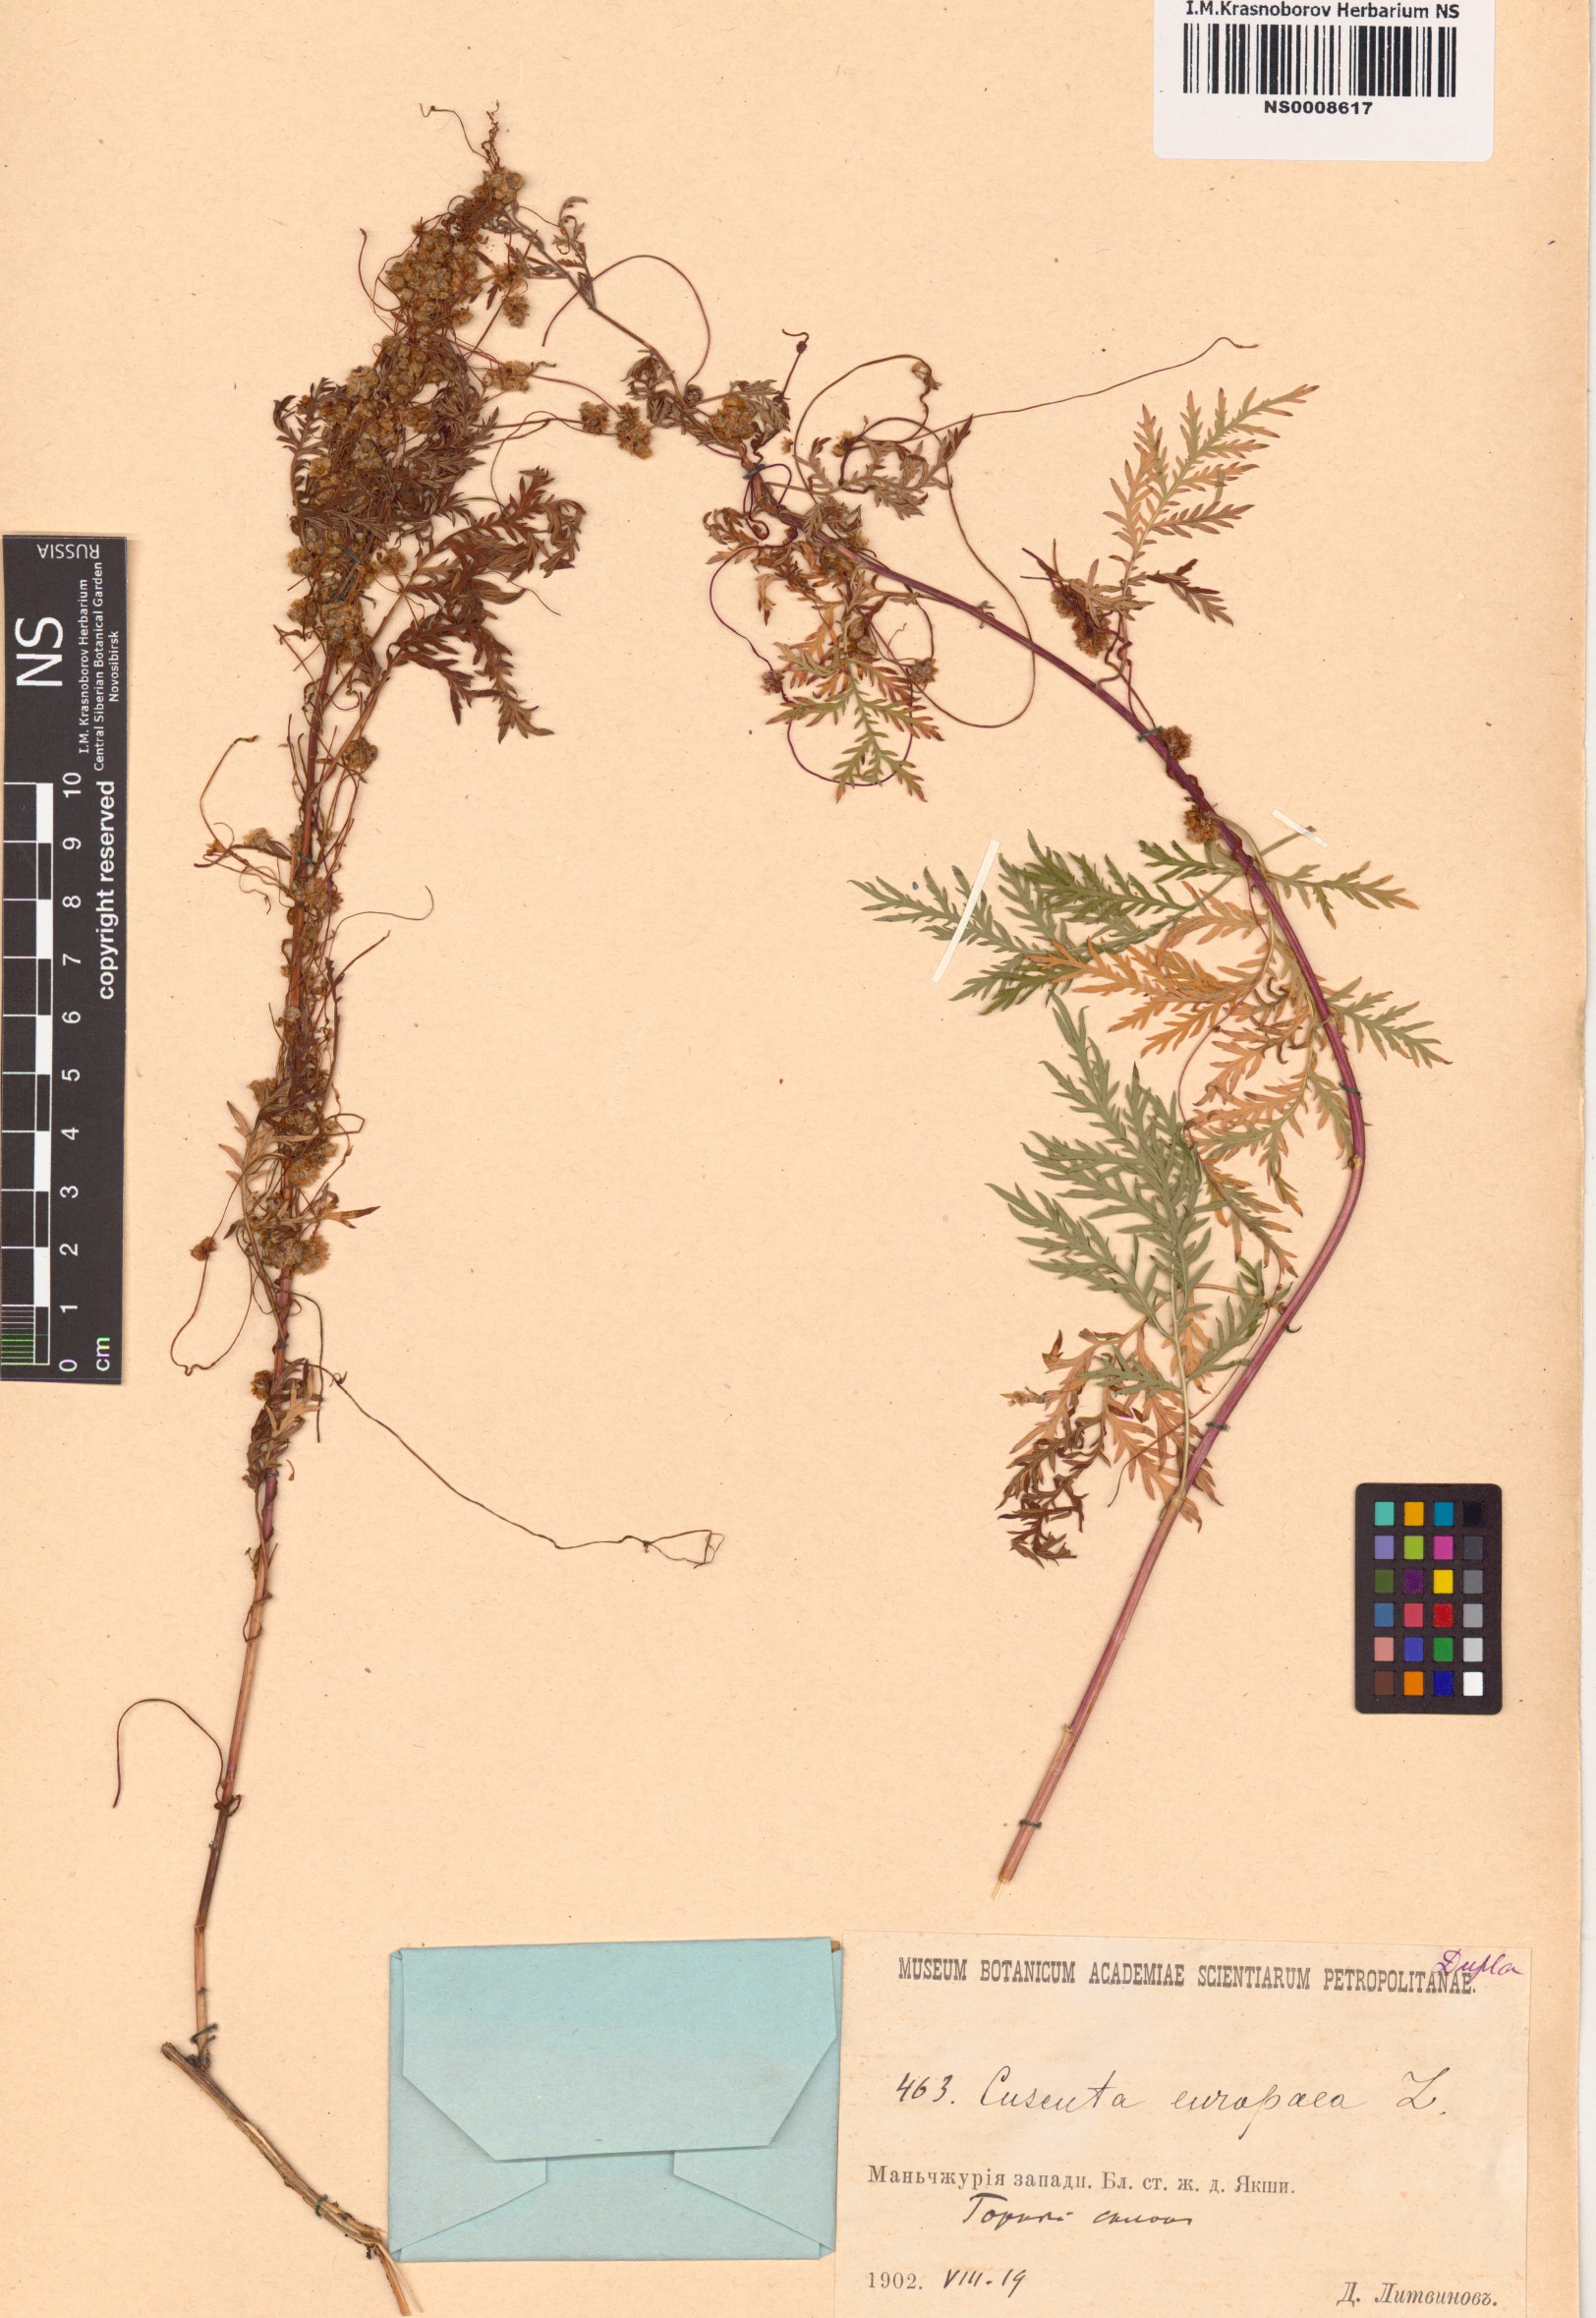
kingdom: Plantae
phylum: Tracheophyta
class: Magnoliopsida
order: Solanales
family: Convolvulaceae
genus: Cuscuta
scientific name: Cuscuta europaea
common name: Greater dodder
